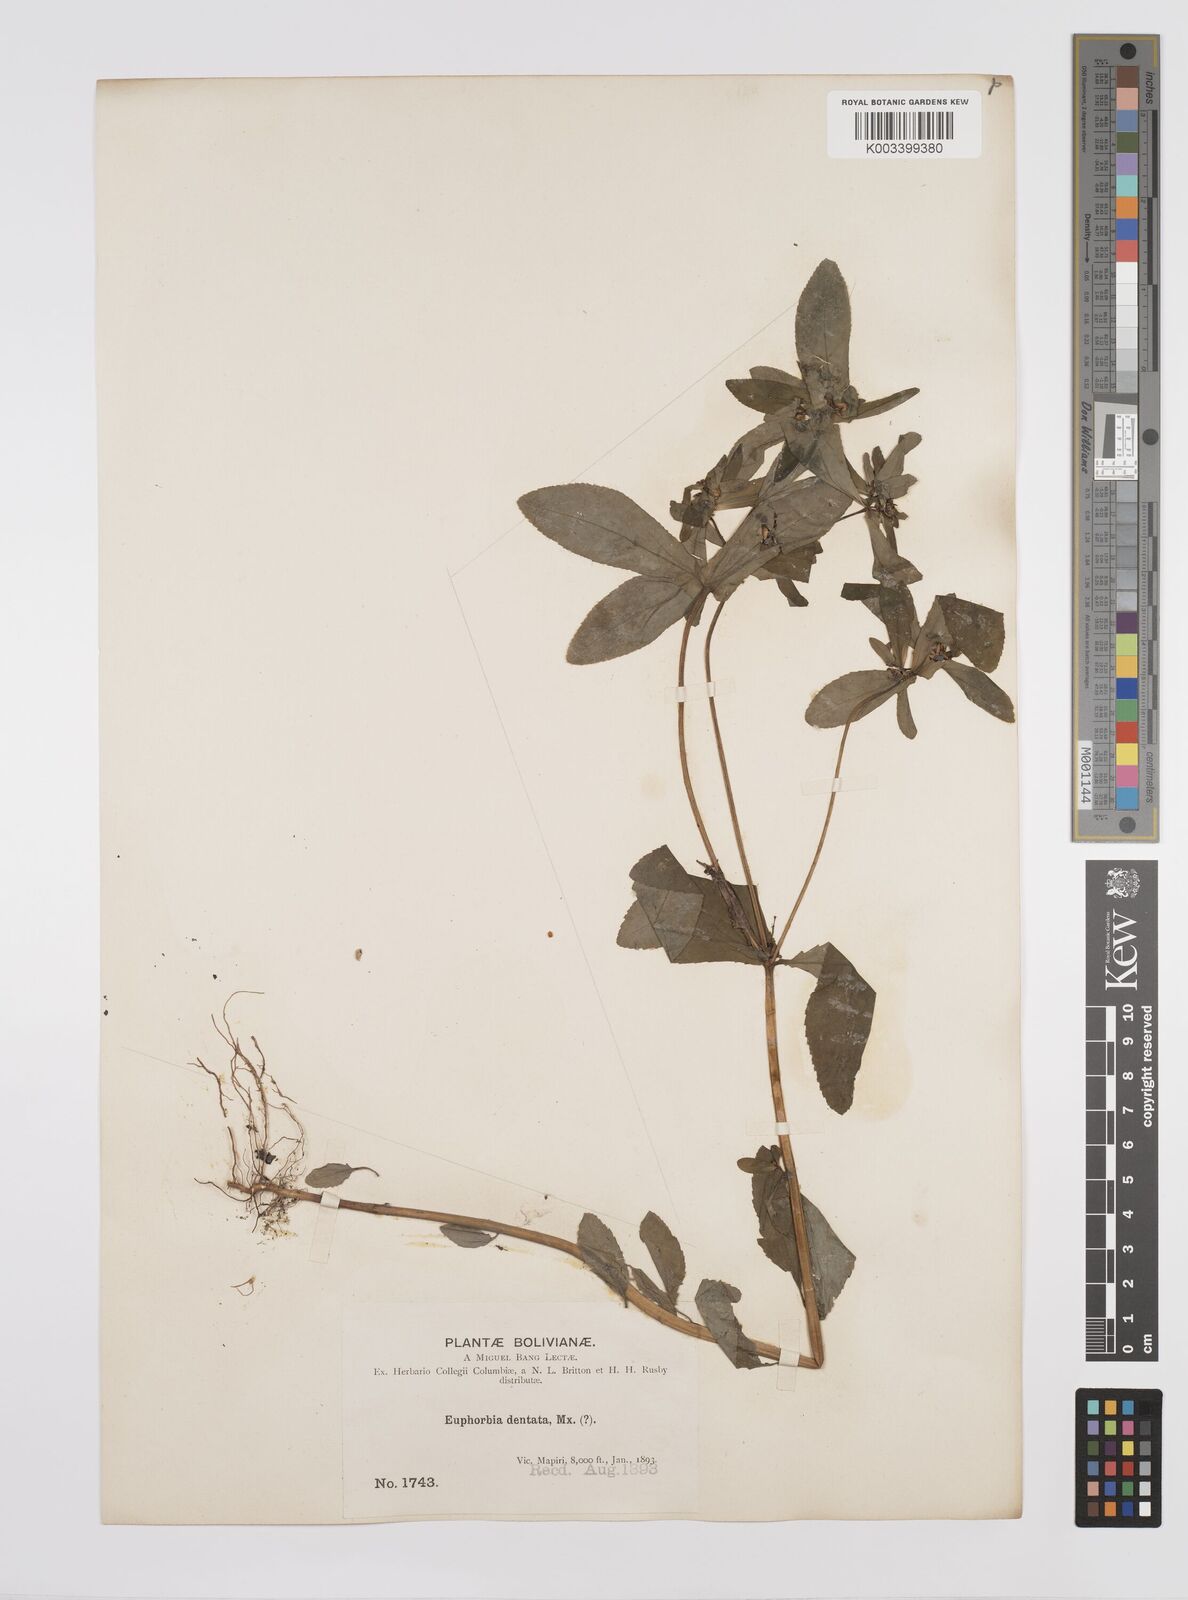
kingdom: Plantae
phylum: Tracheophyta
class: Magnoliopsida
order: Malpighiales
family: Euphorbiaceae
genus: Euphorbia
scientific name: Euphorbia dentata
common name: Dentate spurge
